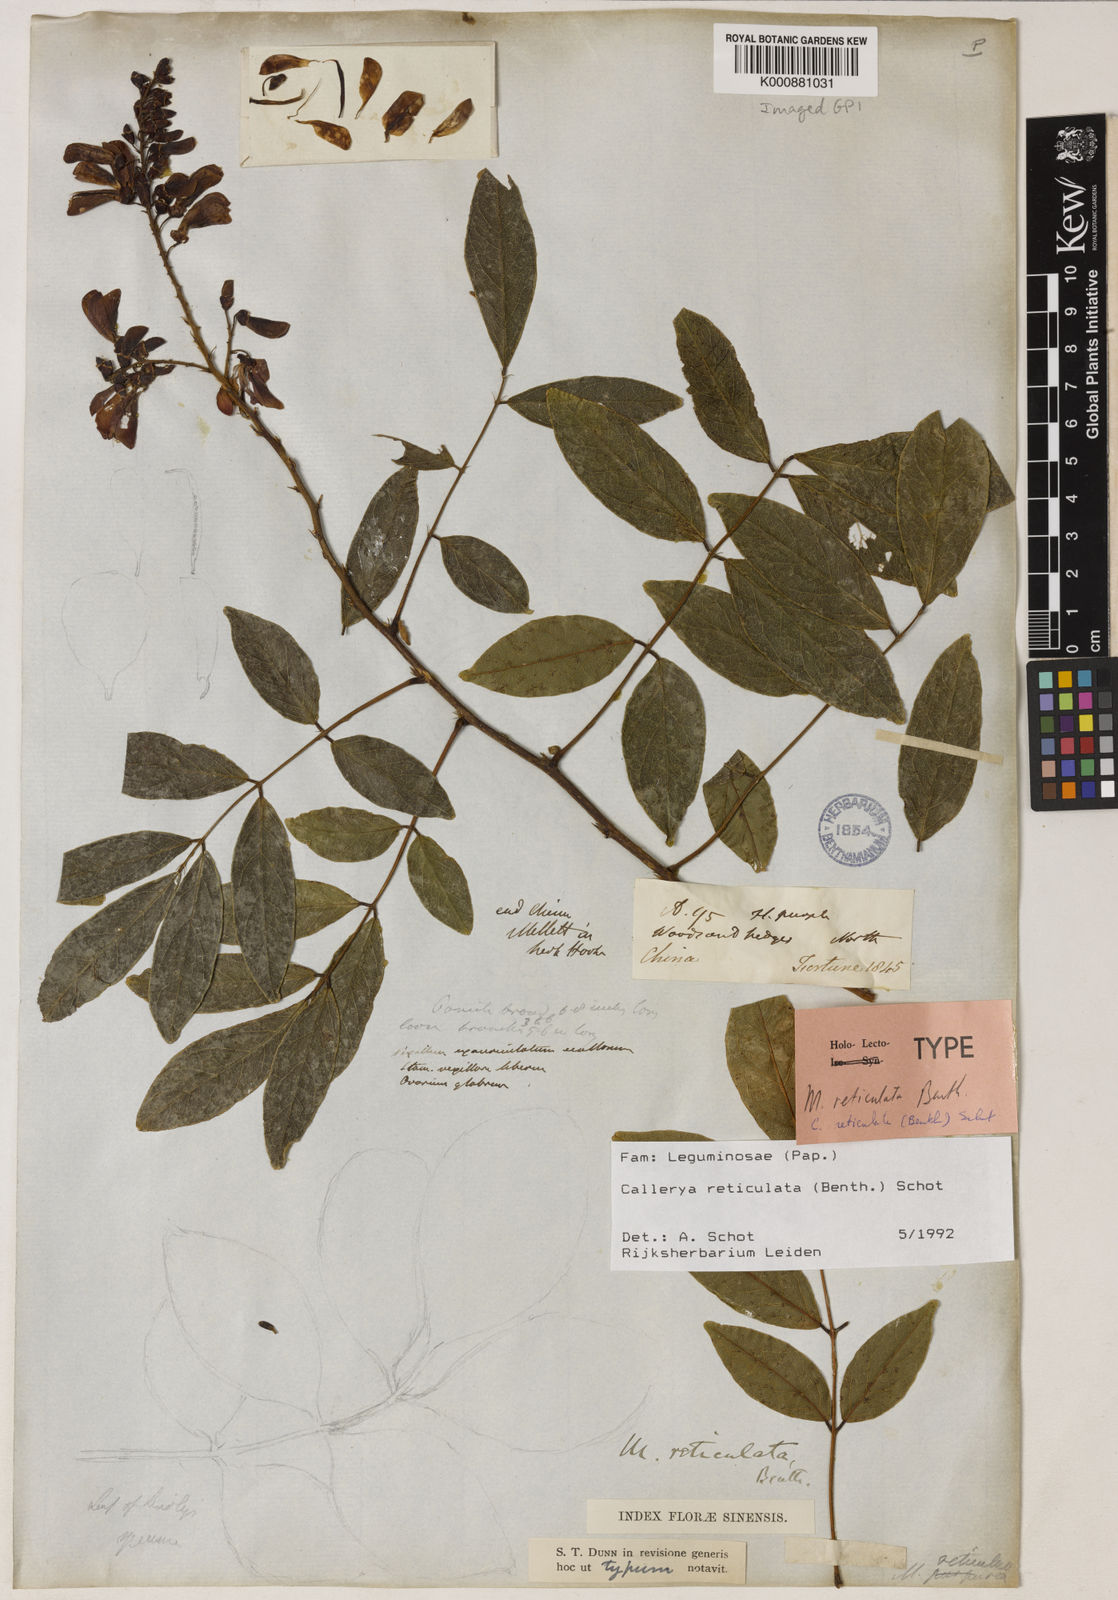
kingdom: Plantae
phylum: Tracheophyta
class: Magnoliopsida
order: Fabales
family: Fabaceae
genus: Wisteriopsis
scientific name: Wisteriopsis reticulata
